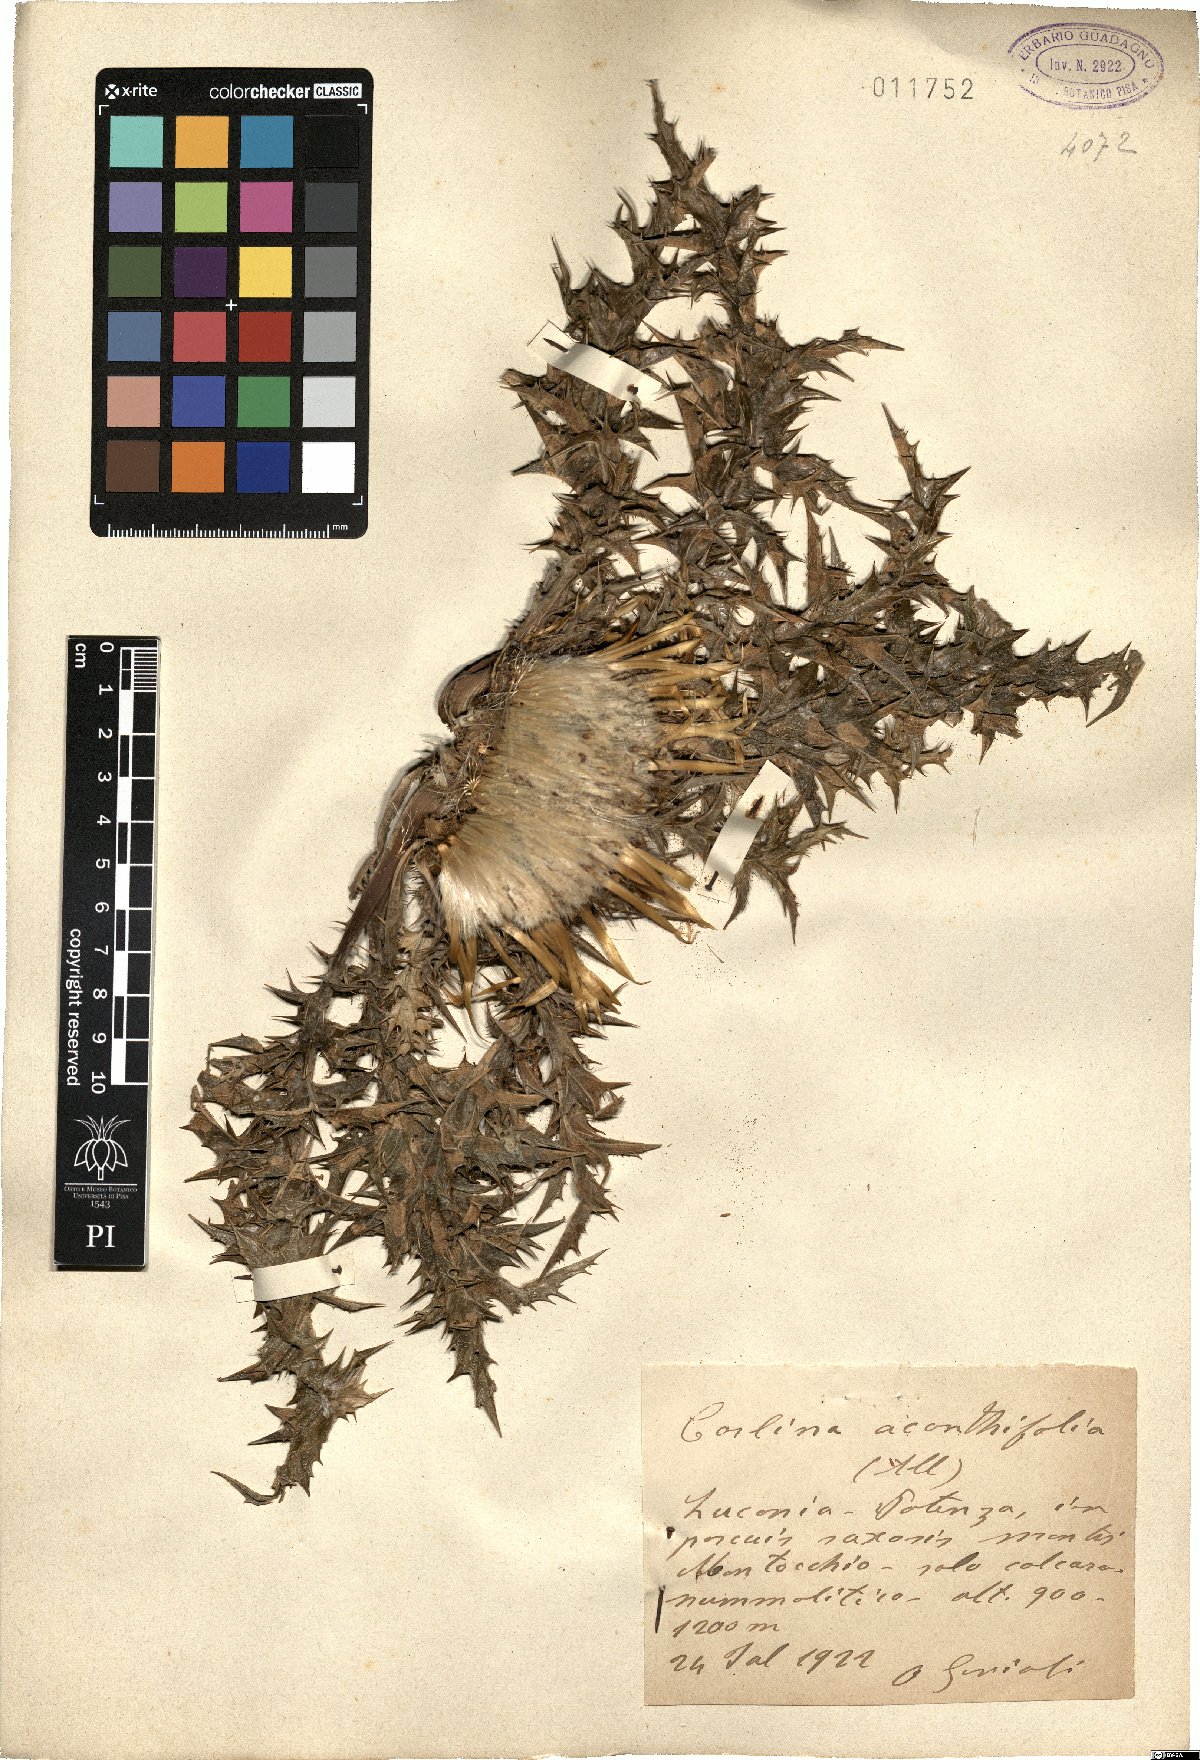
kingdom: Plantae
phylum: Tracheophyta
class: Magnoliopsida
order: Asterales
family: Asteraceae
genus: Carlina
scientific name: Carlina acanthifolia
